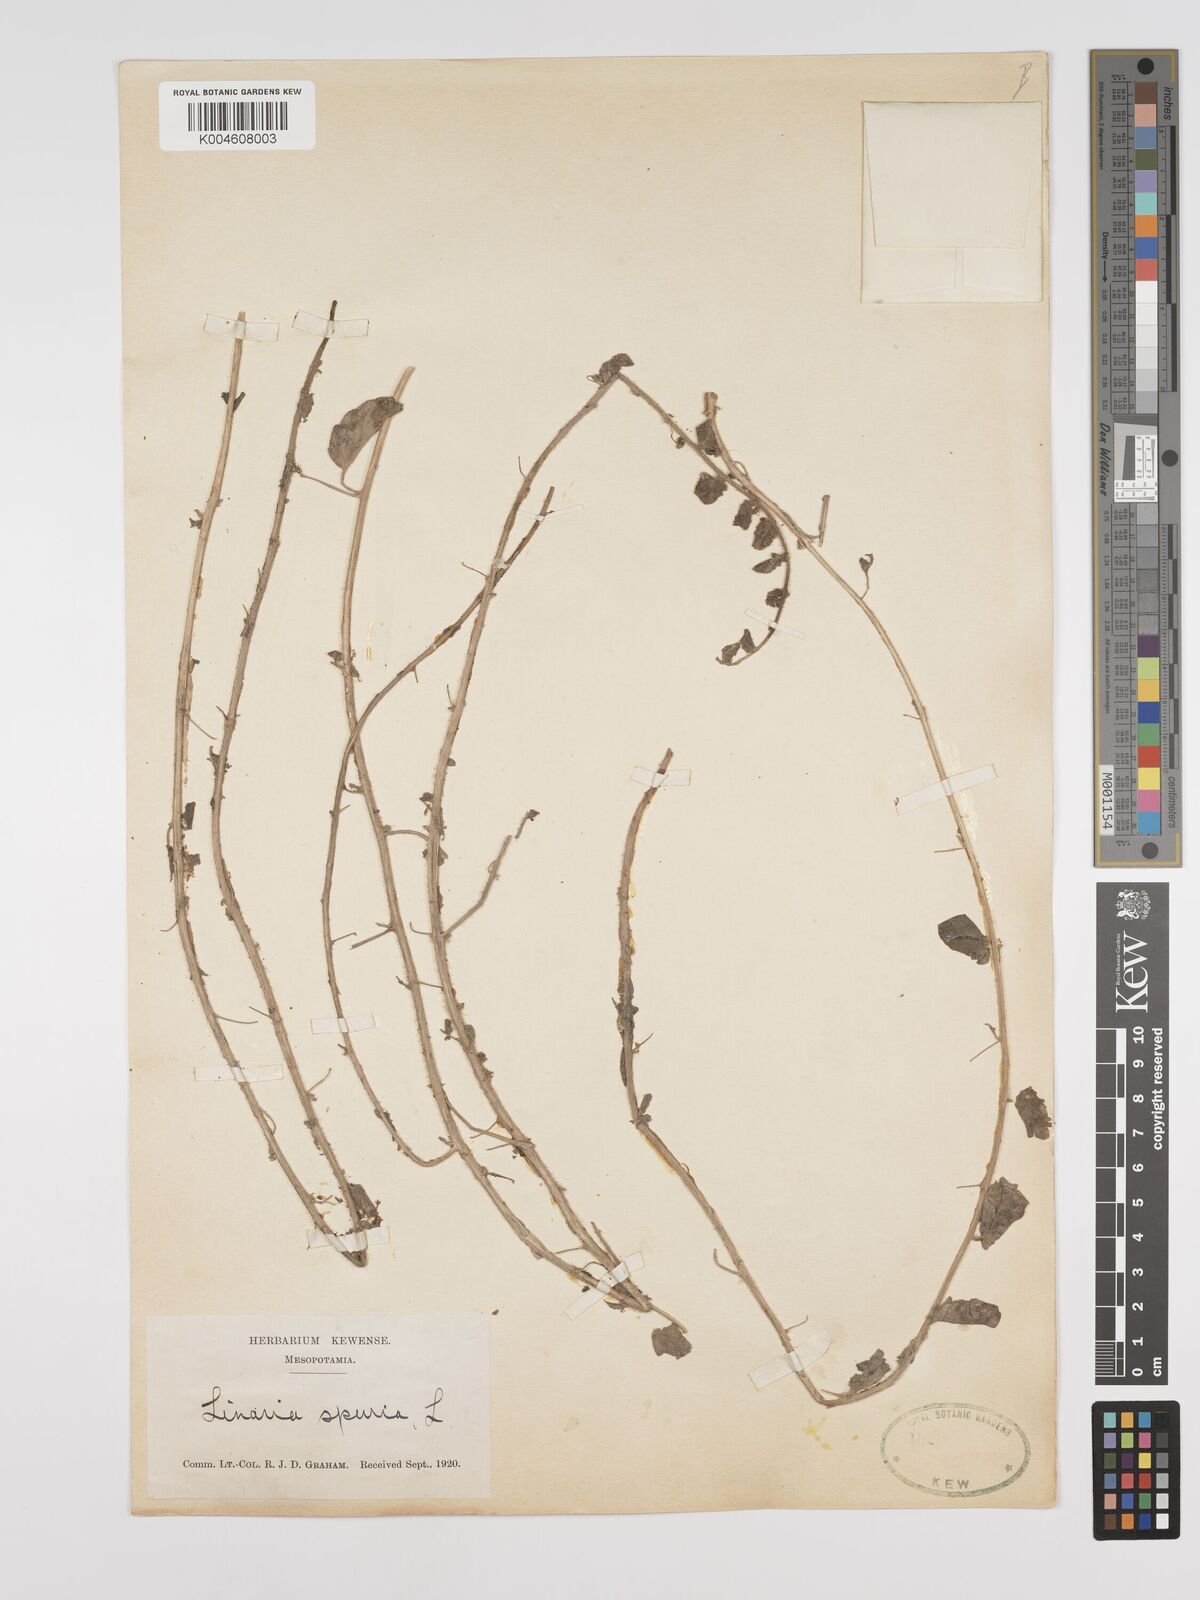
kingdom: Plantae
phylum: Tracheophyta
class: Magnoliopsida
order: Lamiales
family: Plantaginaceae
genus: Kickxia
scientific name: Kickxia spuria
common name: Round-leaved fluellen
